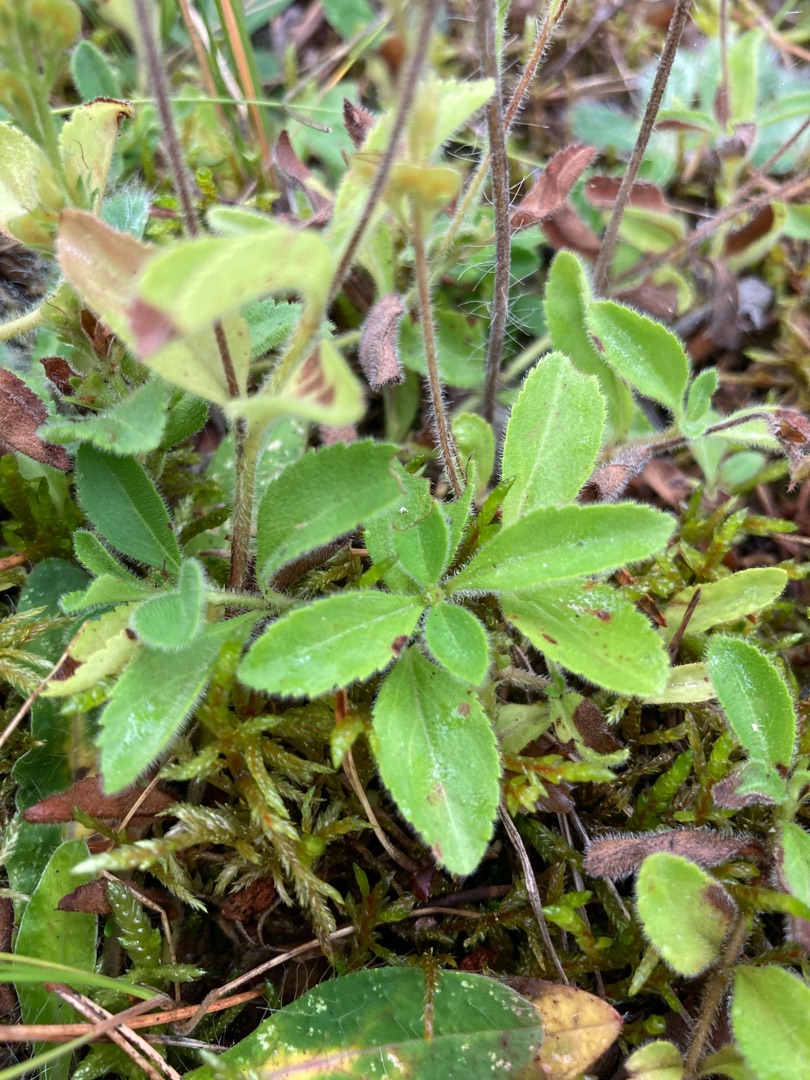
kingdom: Plantae
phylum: Tracheophyta
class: Magnoliopsida
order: Lamiales
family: Plantaginaceae
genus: Veronica
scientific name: Veronica officinalis
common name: Læge-ærenpris
